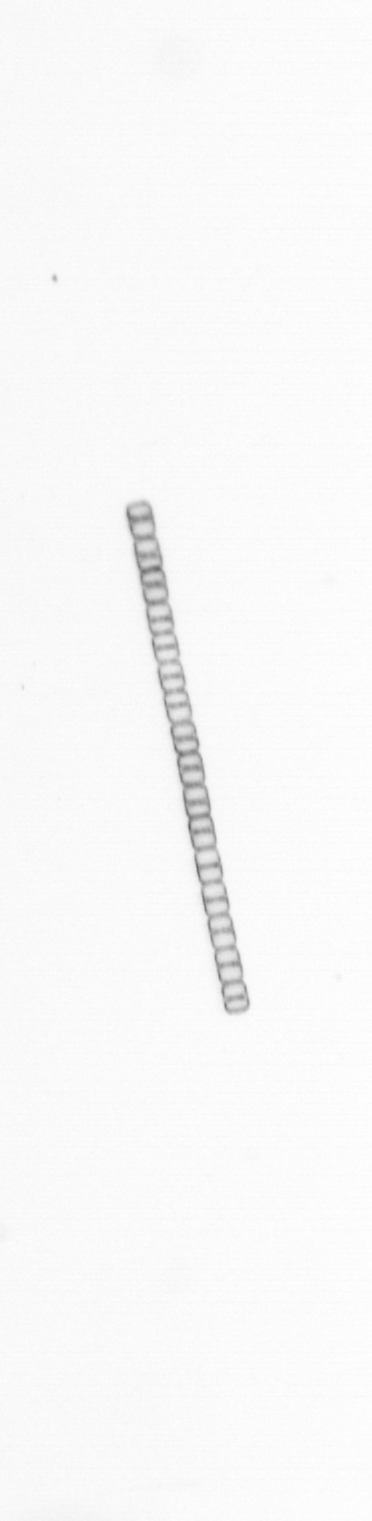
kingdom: Chromista
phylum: Ochrophyta
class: Bacillariophyceae
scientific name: Bacillariophyceae
